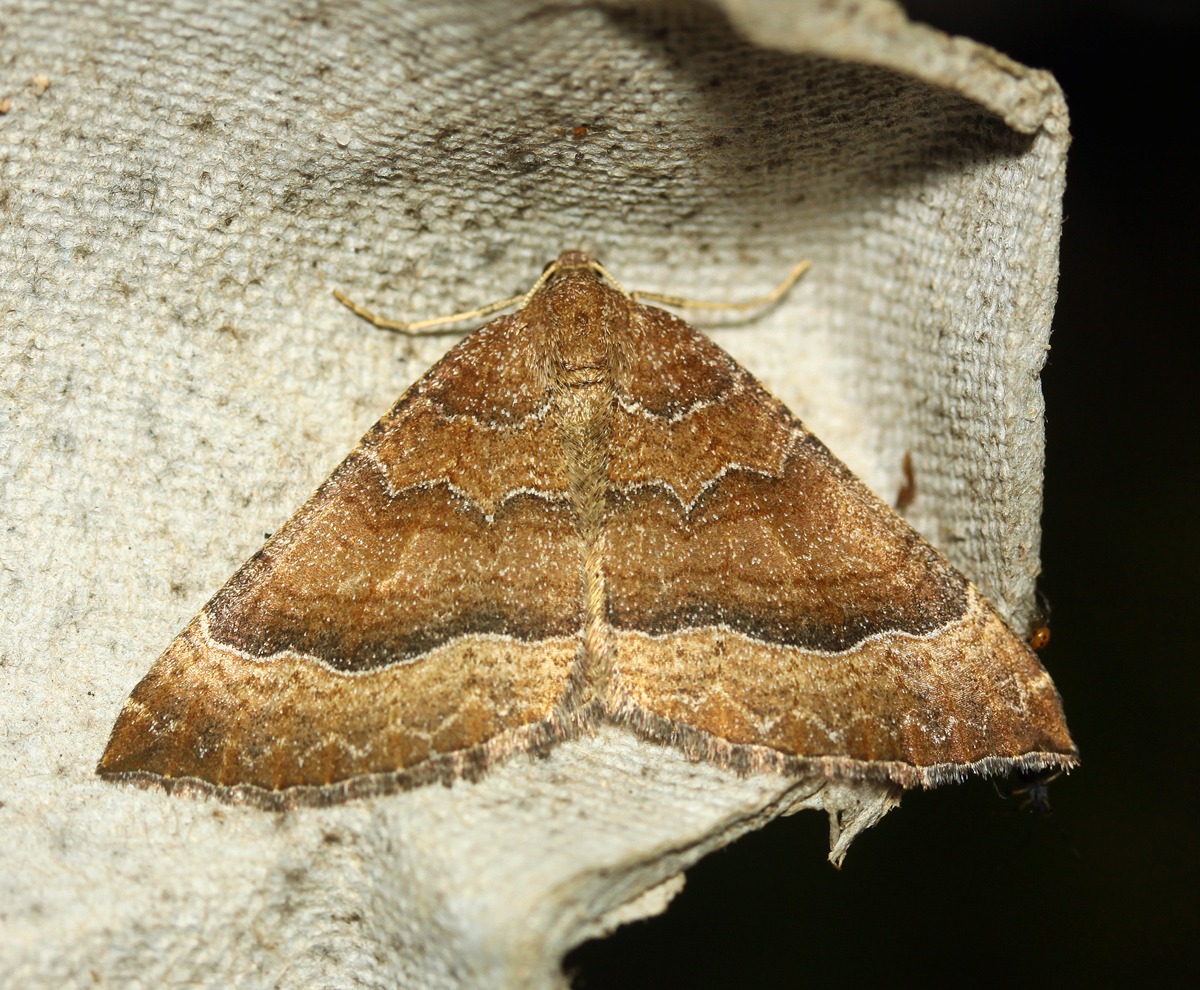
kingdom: Animalia
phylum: Arthropoda
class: Insecta
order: Lepidoptera
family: Geometridae
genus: Larentia
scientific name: Larentia clavaria
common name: Katostmåler
